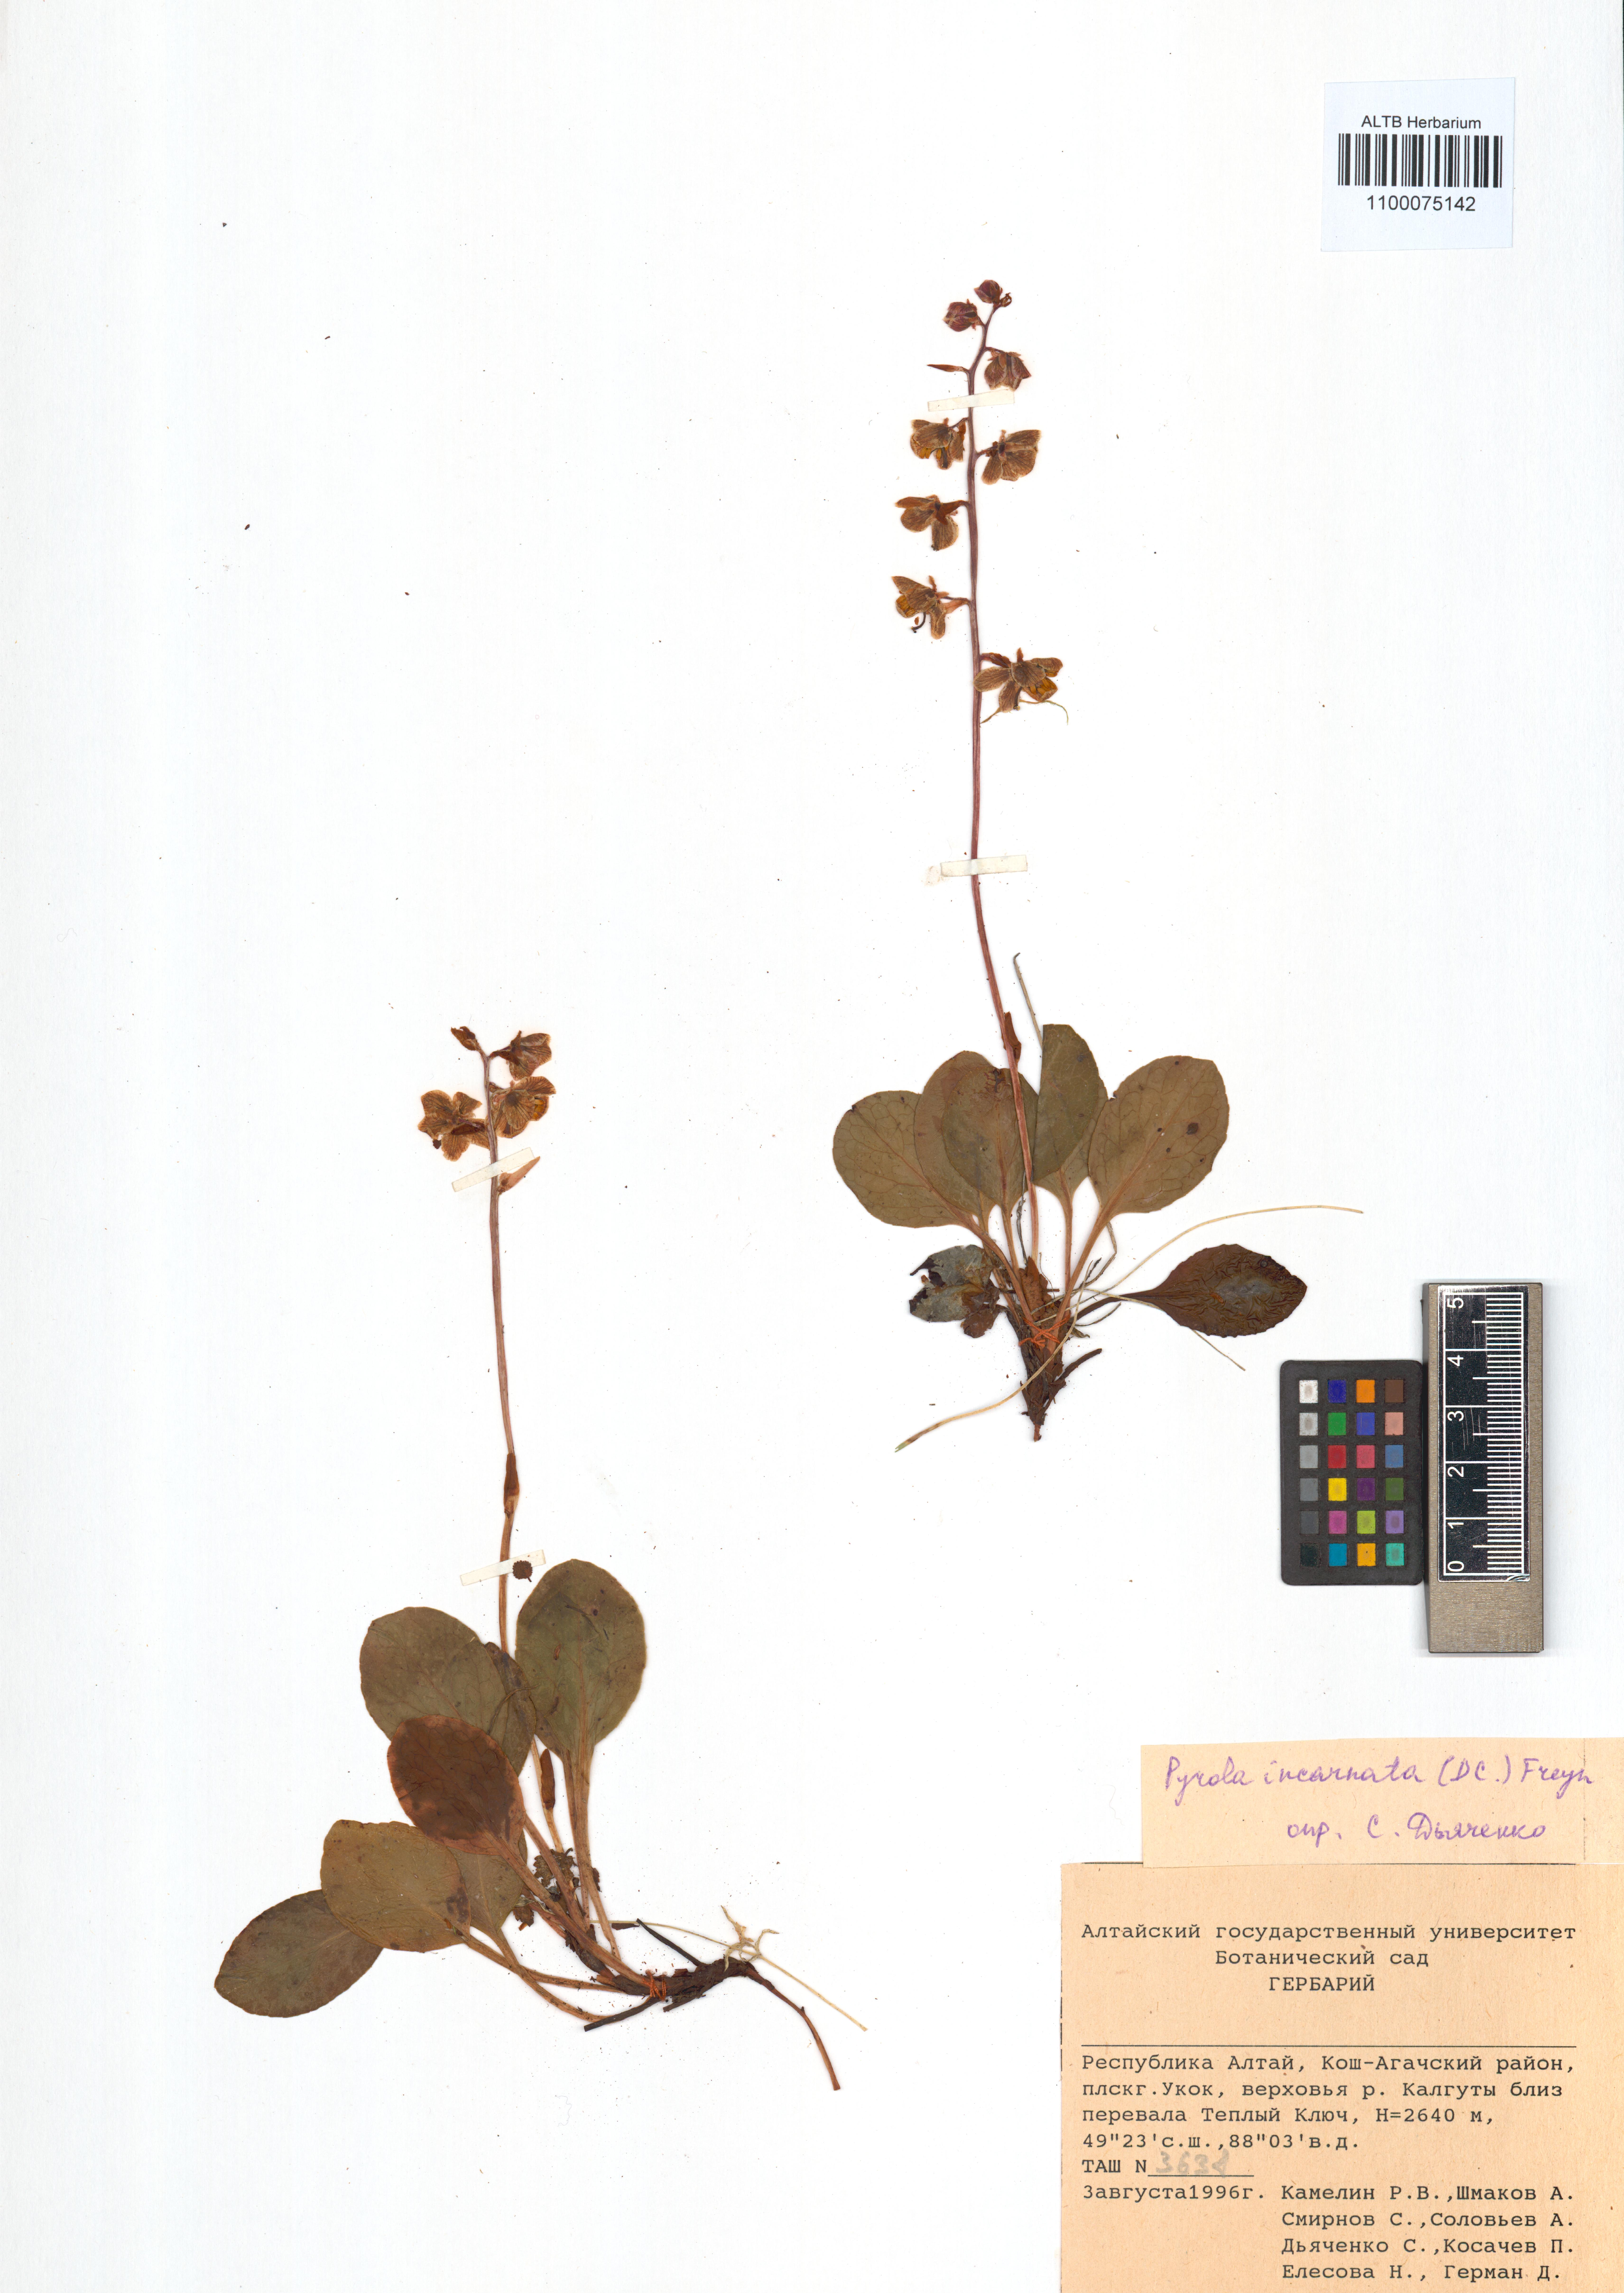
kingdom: Plantae
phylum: Tracheophyta
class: Magnoliopsida
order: Ericales
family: Ericaceae
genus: Pyrola
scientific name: Pyrola asarifolia
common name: Bog wintergreen
